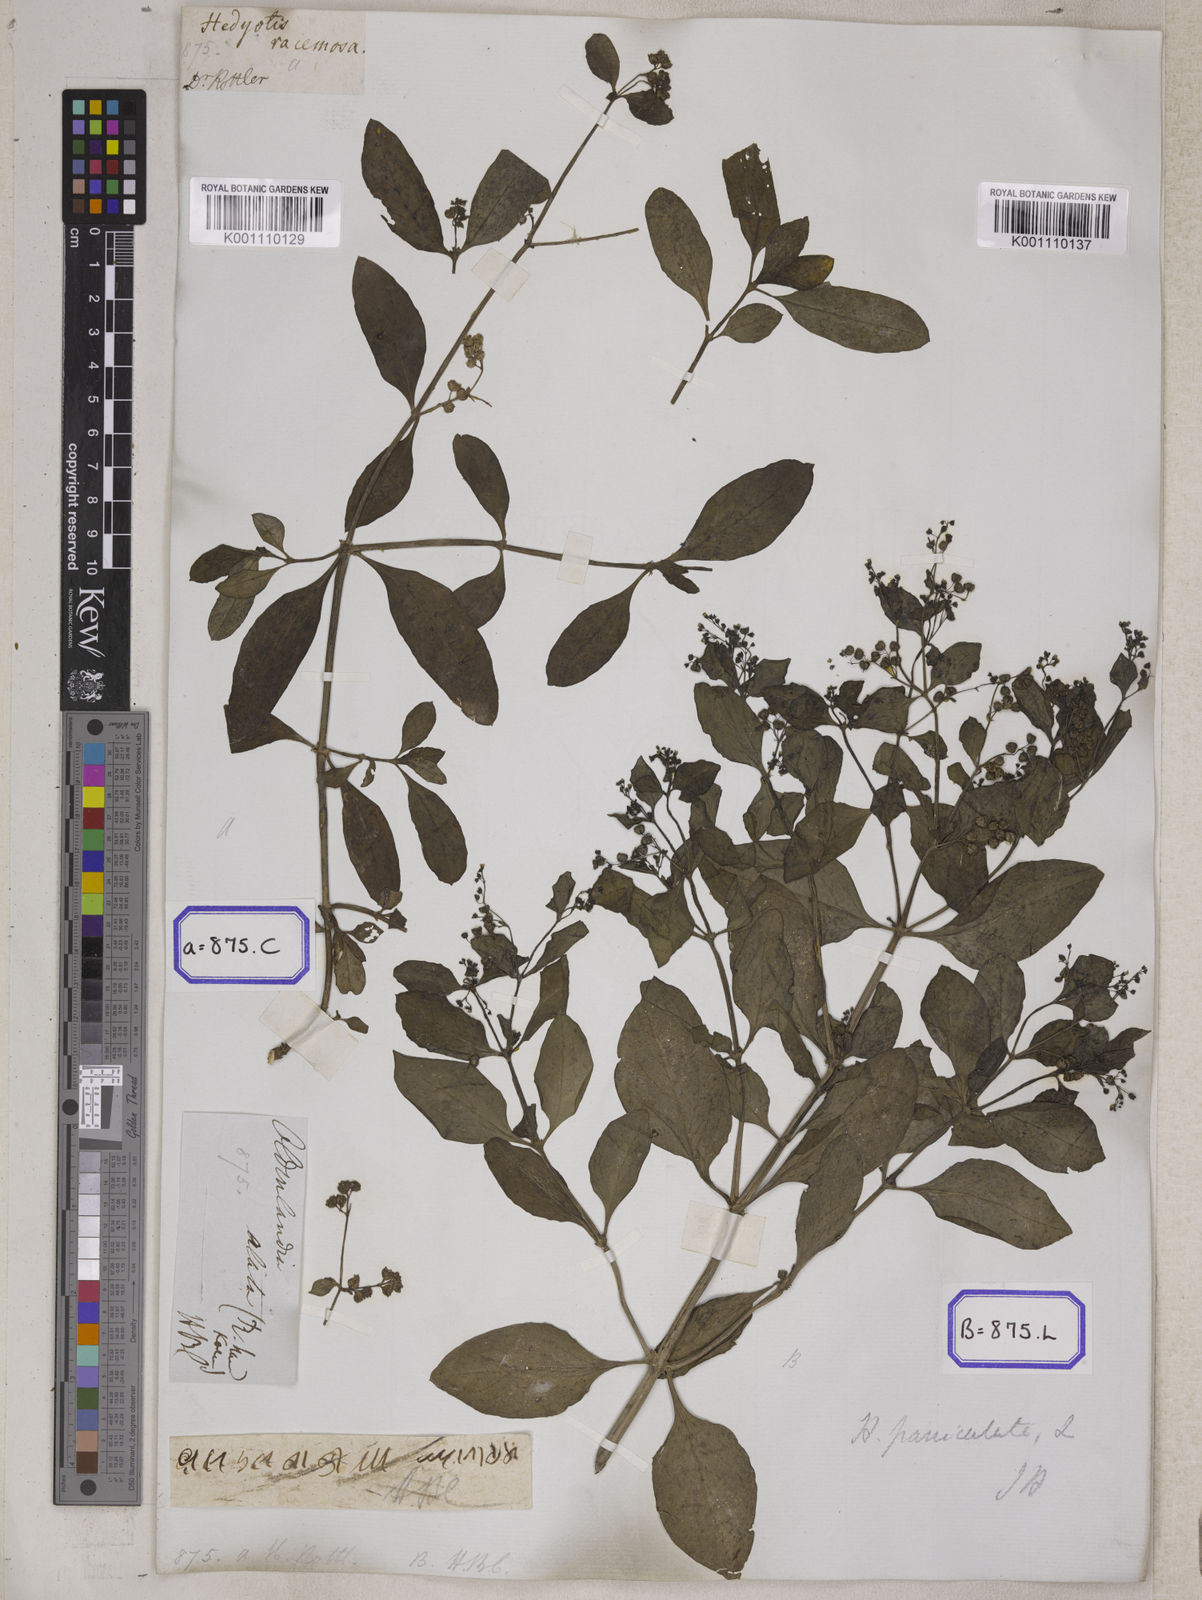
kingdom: Plantae
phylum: Tracheophyta
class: Magnoliopsida
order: Gentianales
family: Rubiaceae
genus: Leptopetalum
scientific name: Leptopetalum racemosum
